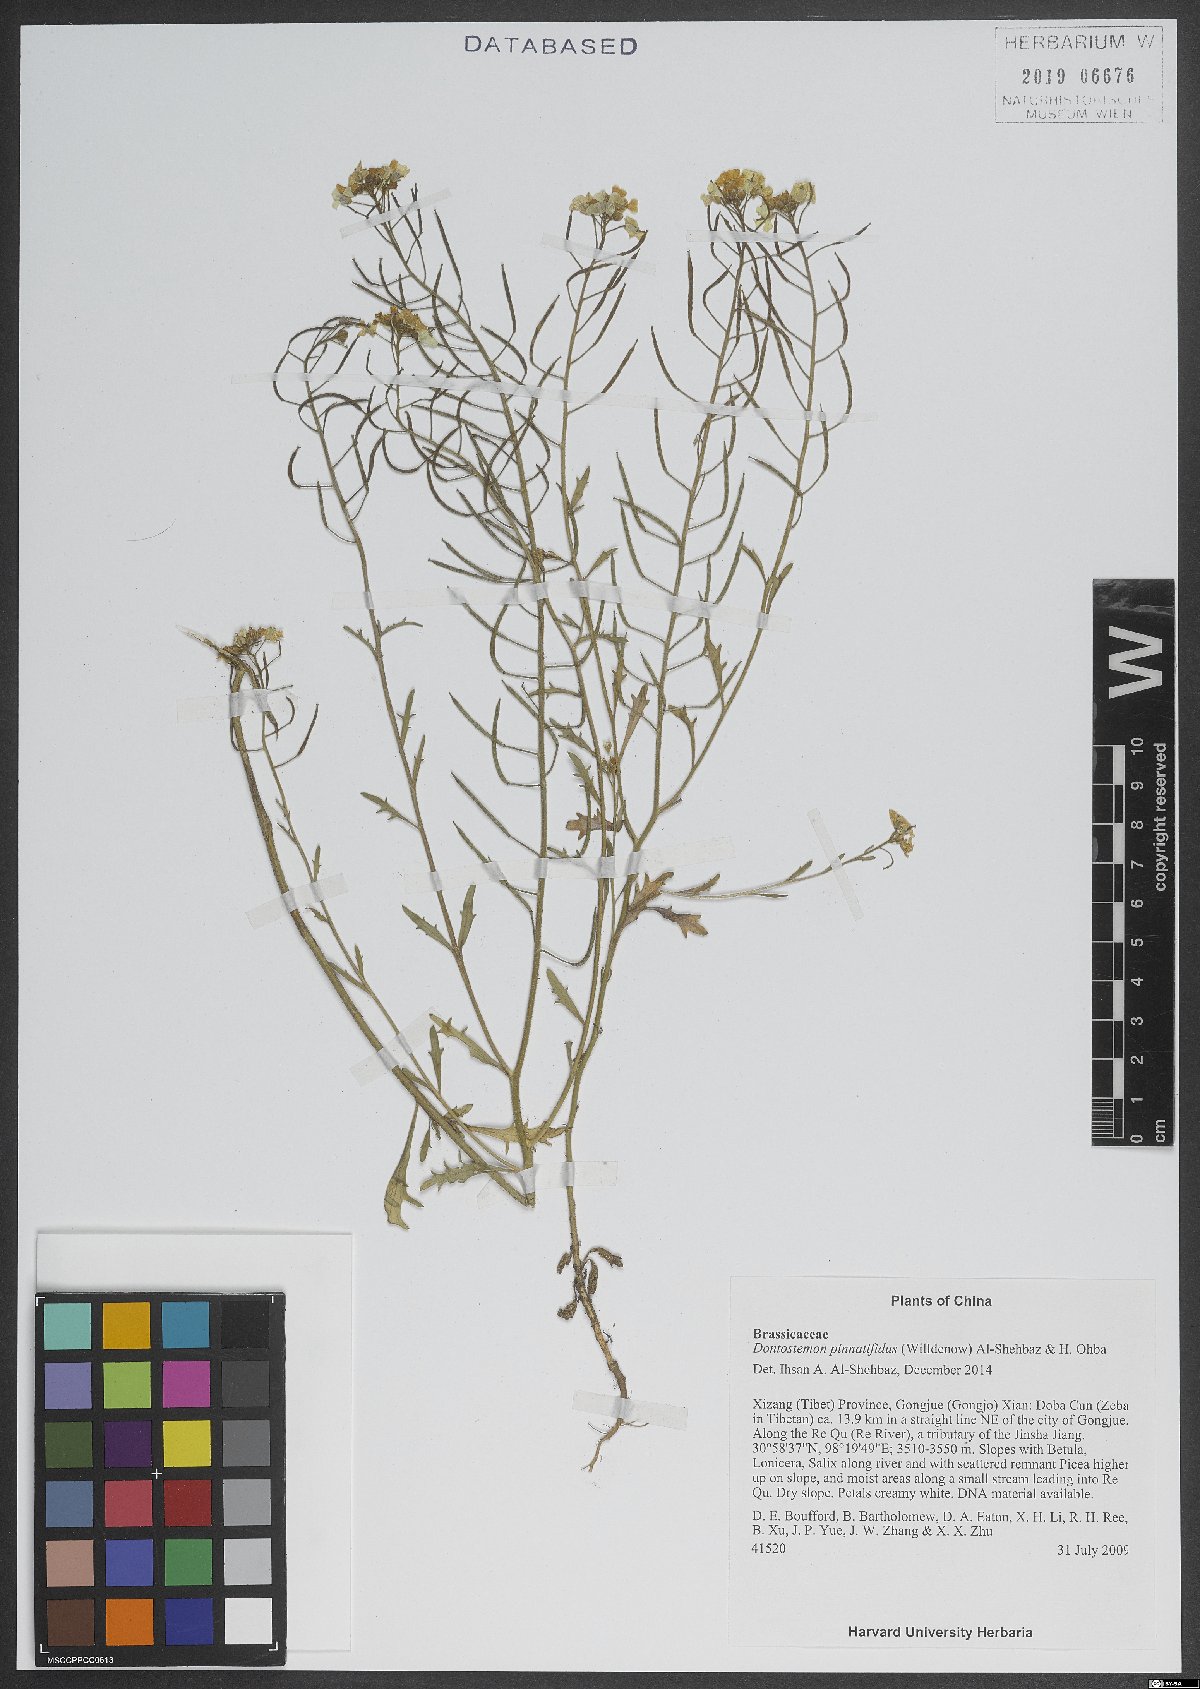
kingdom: Plantae
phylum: Tracheophyta
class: Magnoliopsida
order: Brassicales
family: Brassicaceae
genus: Dontostemon
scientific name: Dontostemon pinnatifidus
